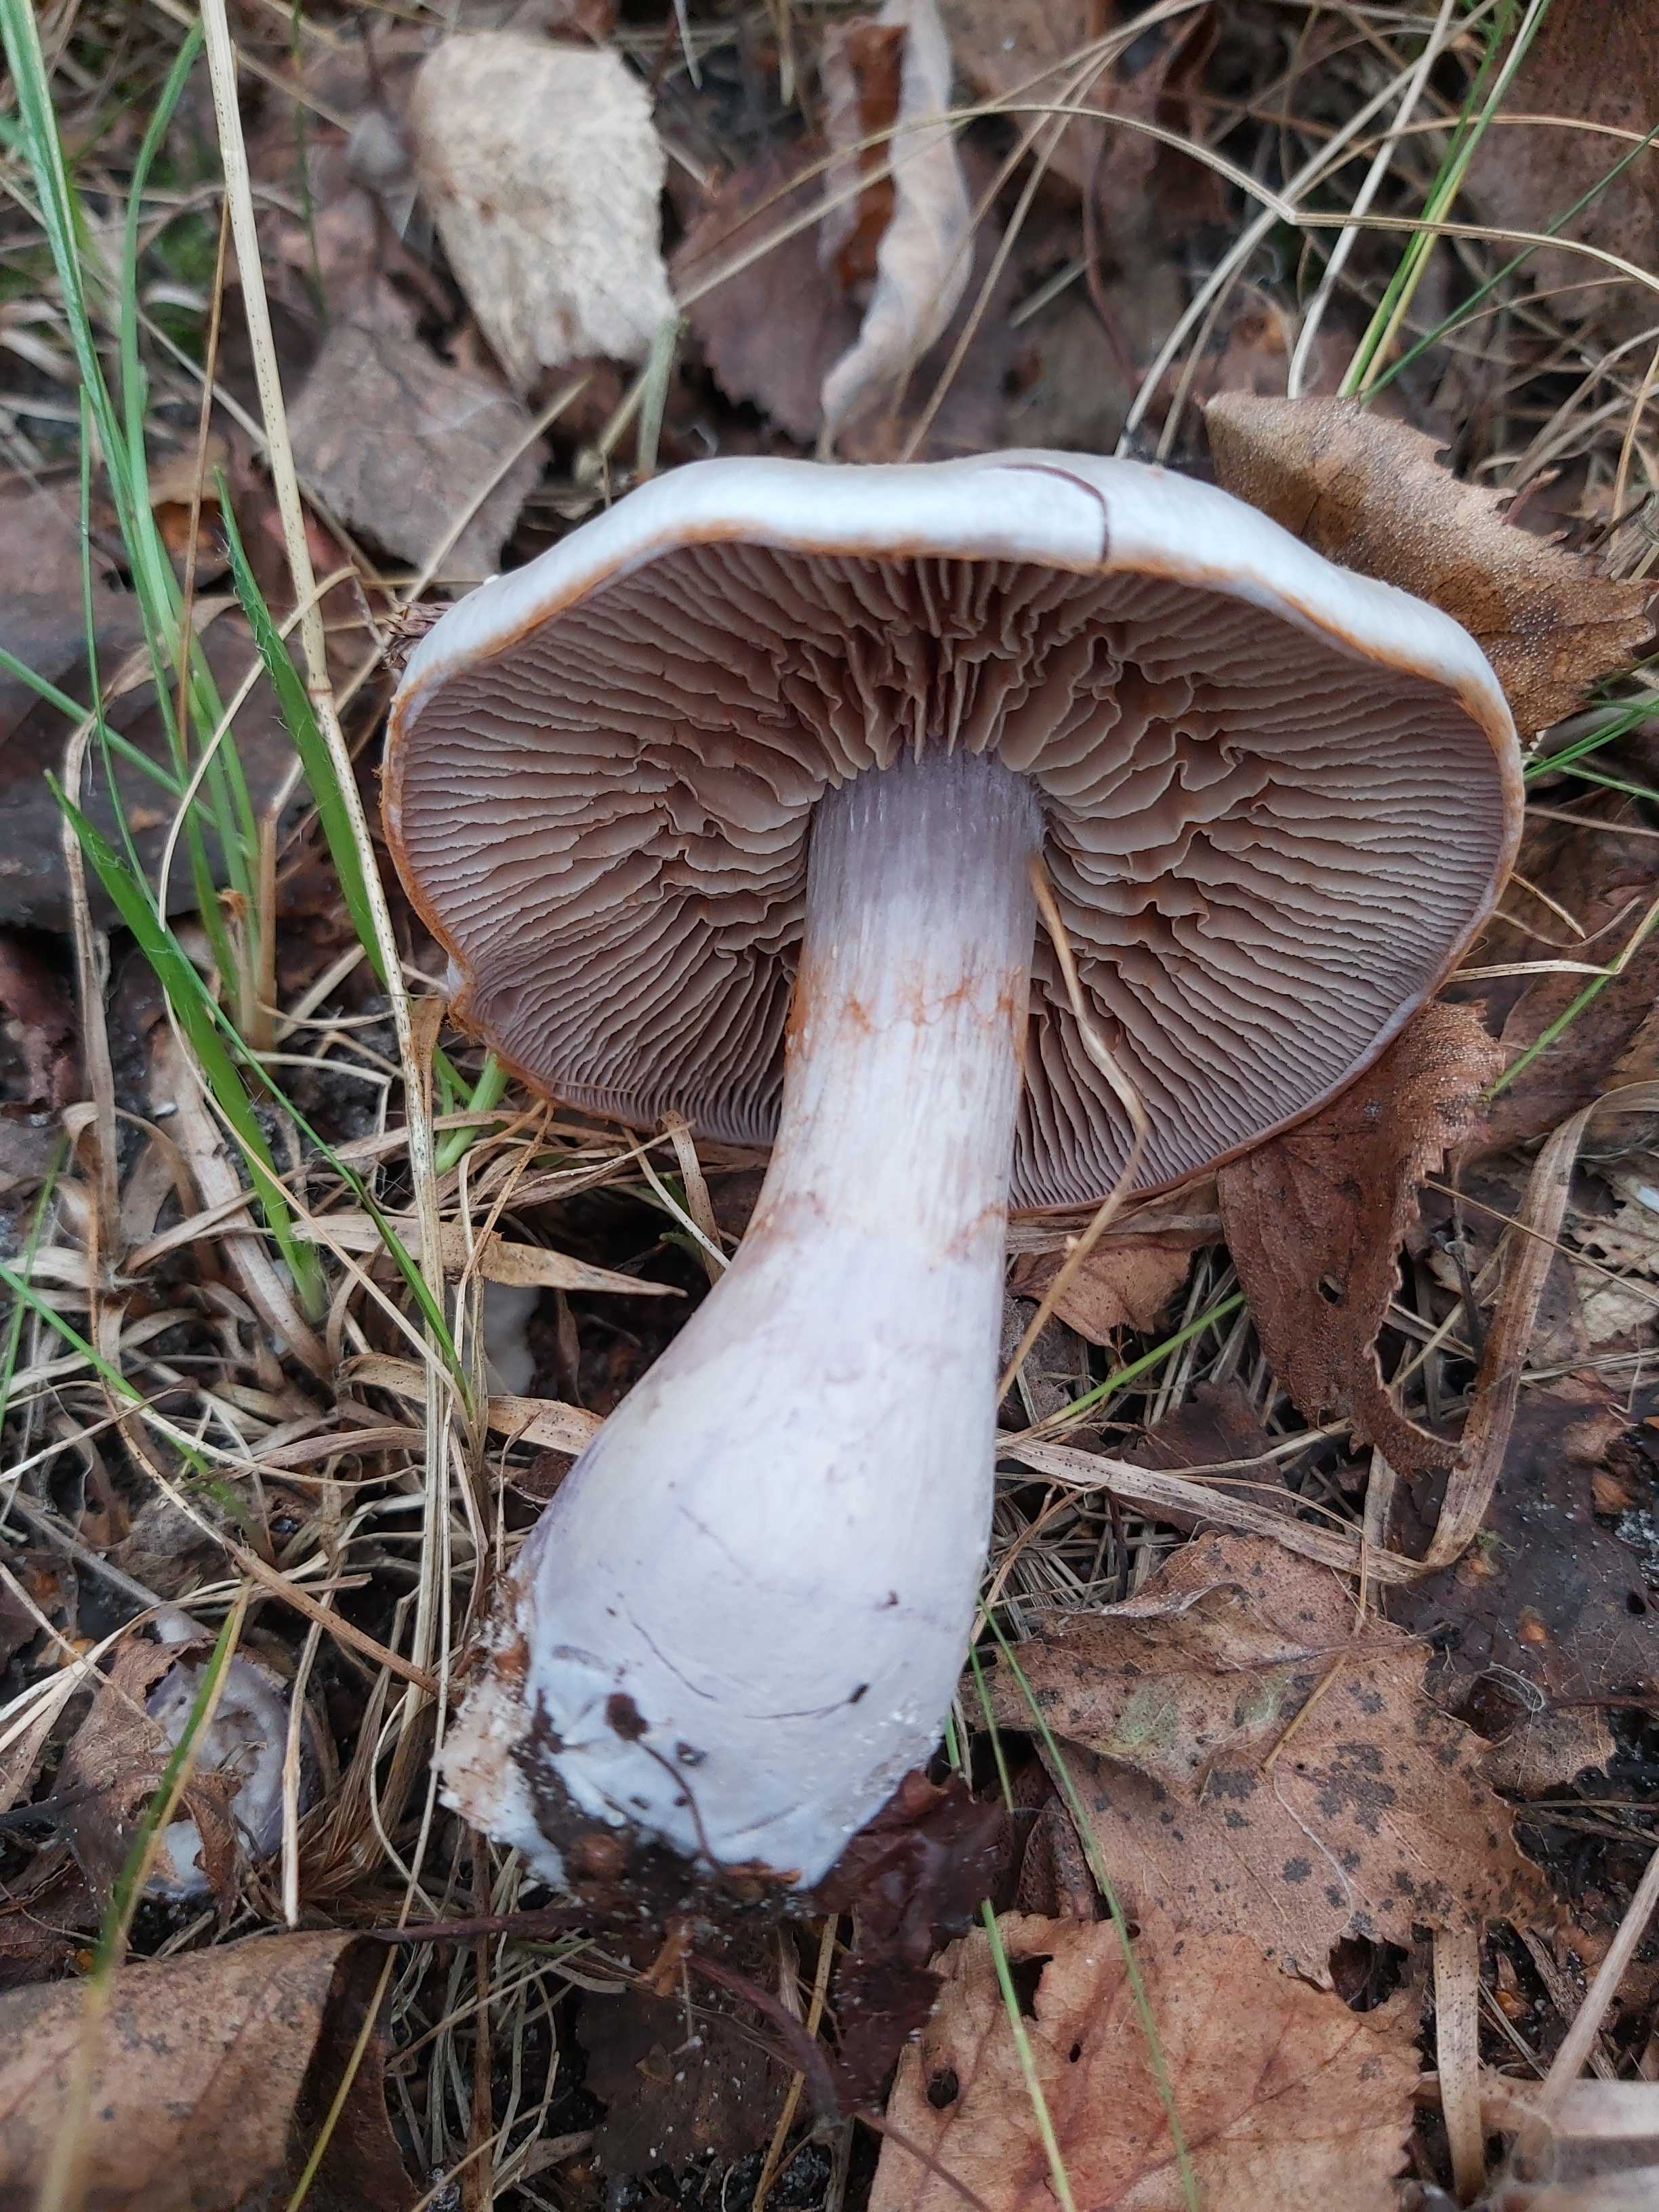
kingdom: Fungi
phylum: Basidiomycota
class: Agaricomycetes
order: Agaricales
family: Cortinariaceae
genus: Cortinarius
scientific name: Cortinarius alboviolaceus
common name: lysviolet slørhat
